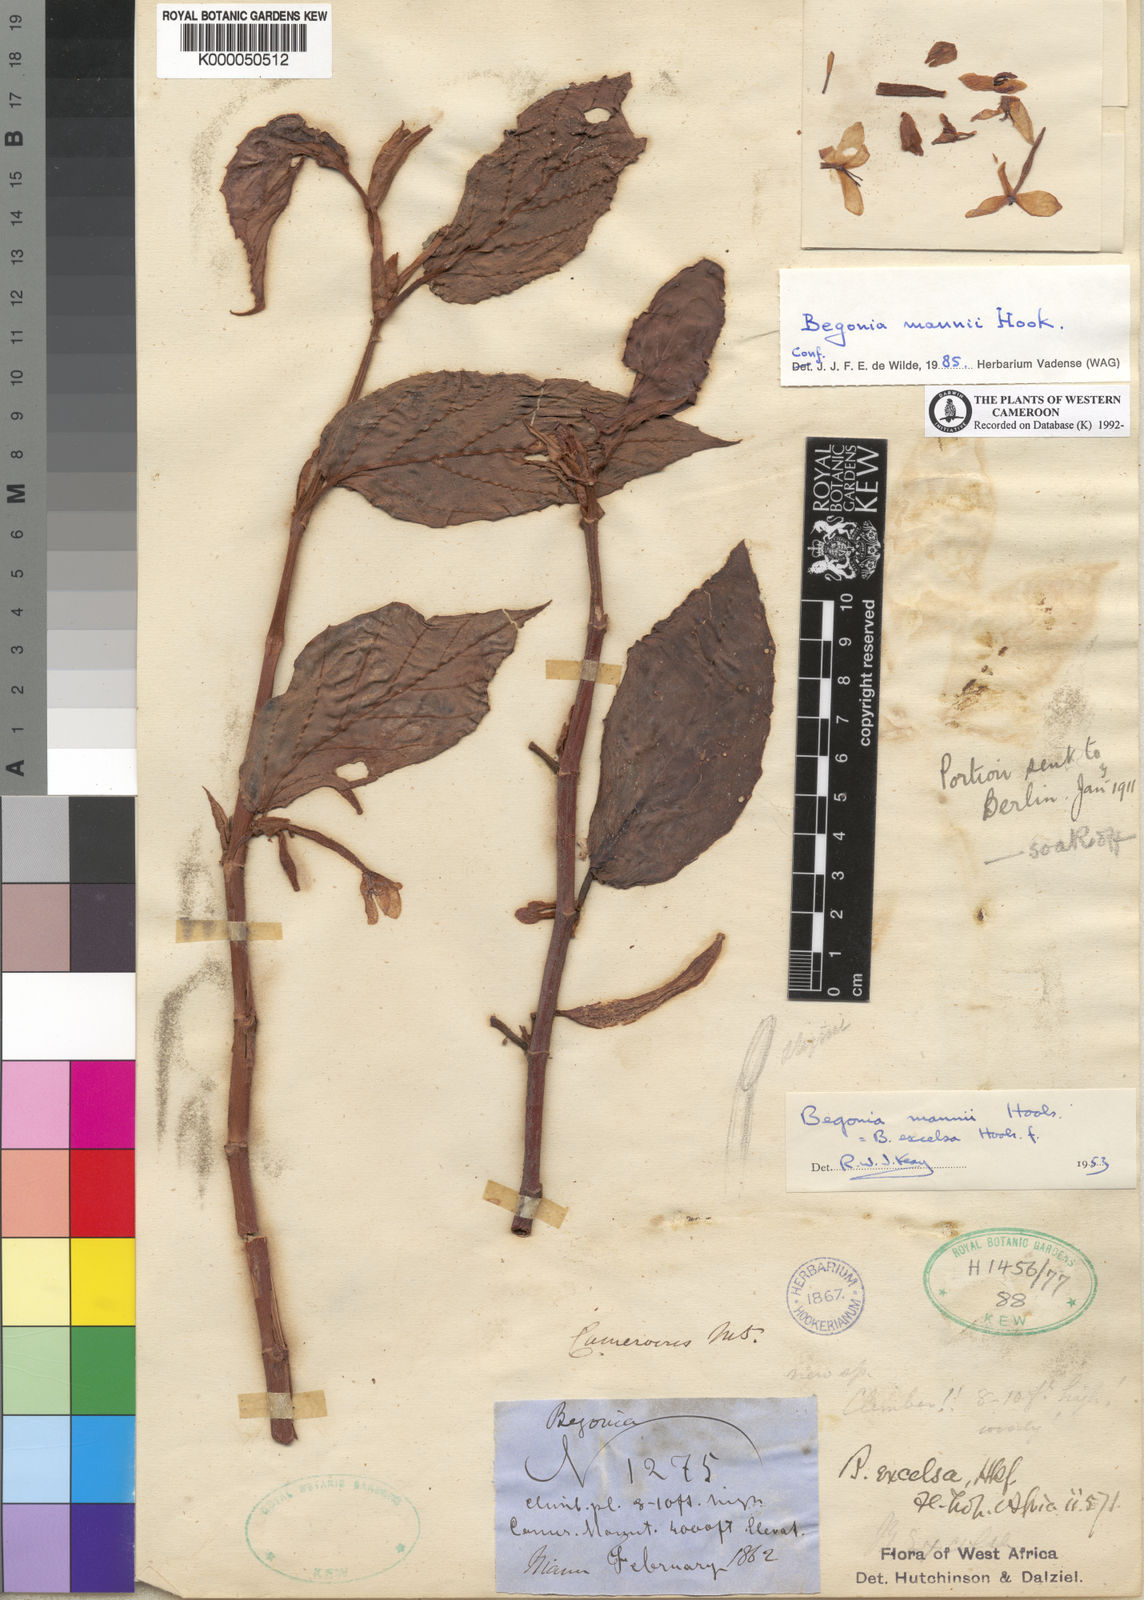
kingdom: Plantae
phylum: Tracheophyta
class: Magnoliopsida
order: Cucurbitales
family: Begoniaceae
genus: Begonia
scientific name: Begonia mannii
